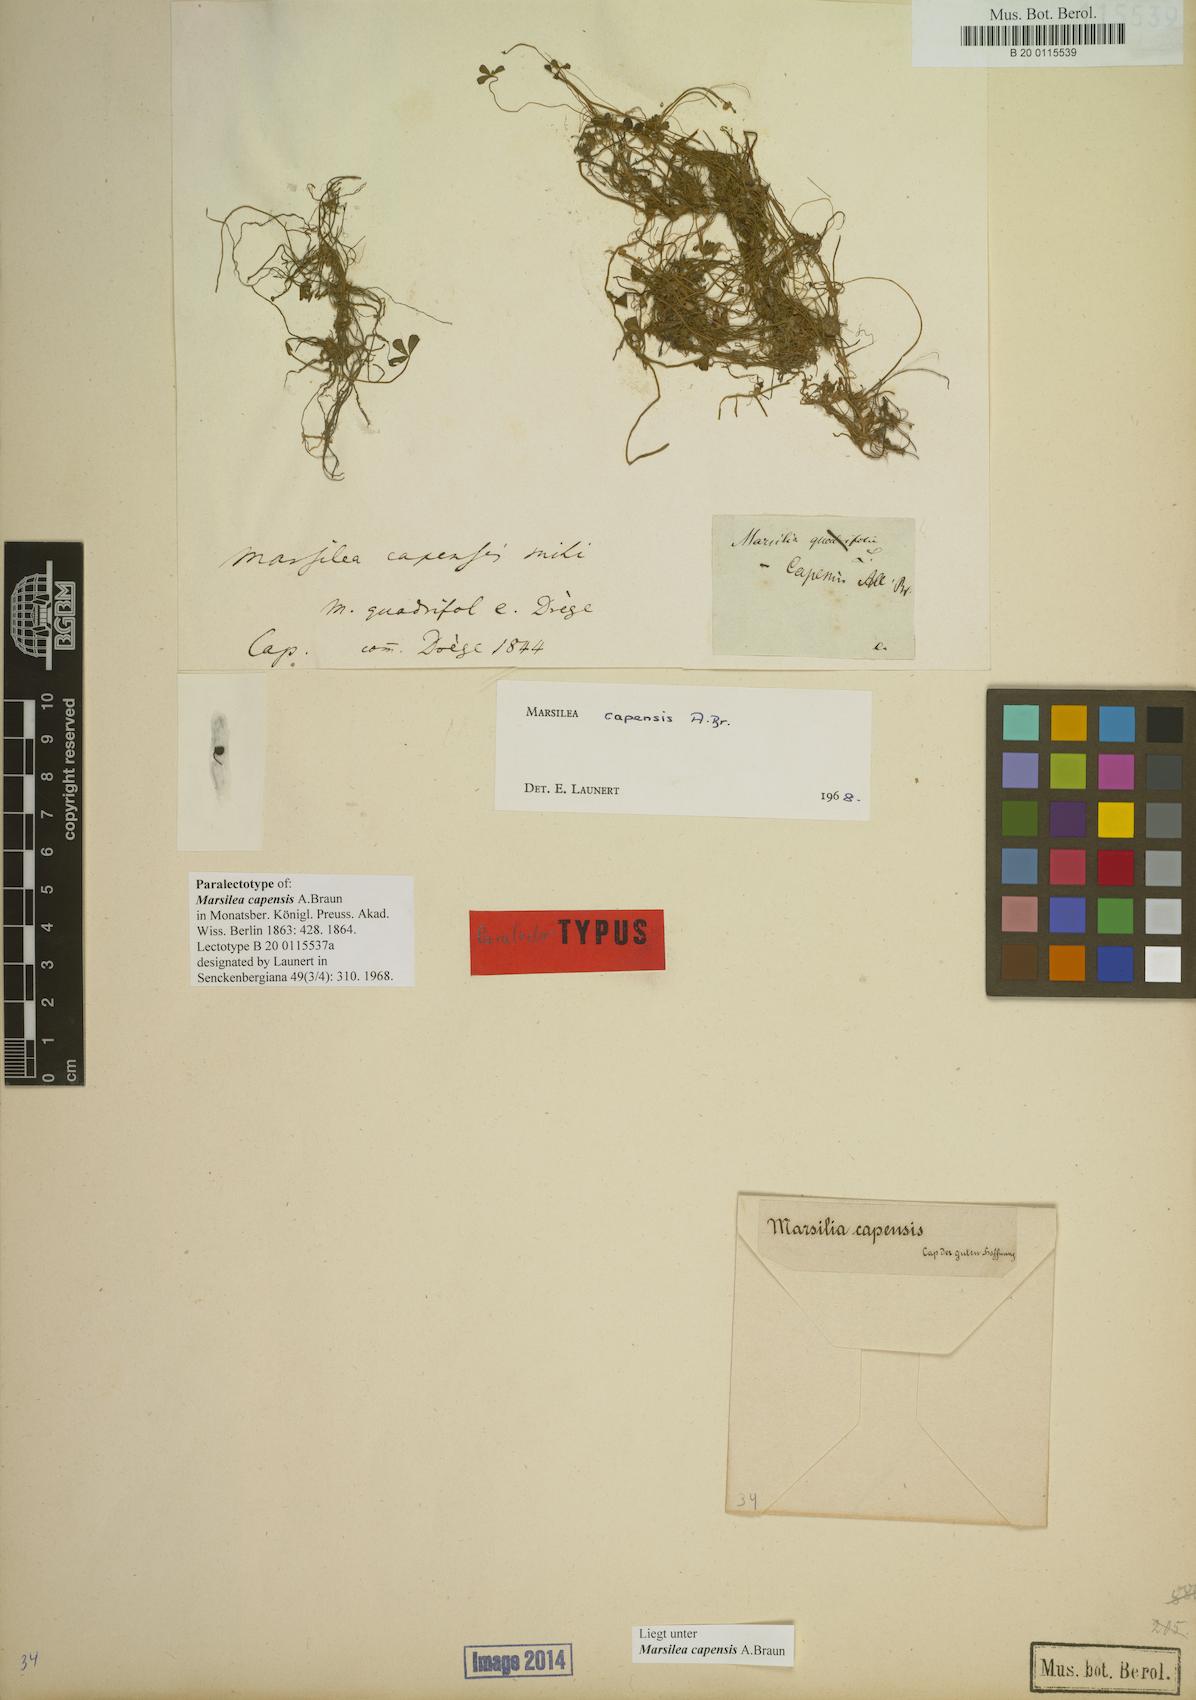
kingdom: Plantae
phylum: Tracheophyta
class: Polypodiopsida
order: Salviniales
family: Marsileaceae
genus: Marsilea
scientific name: Marsilea capensis
